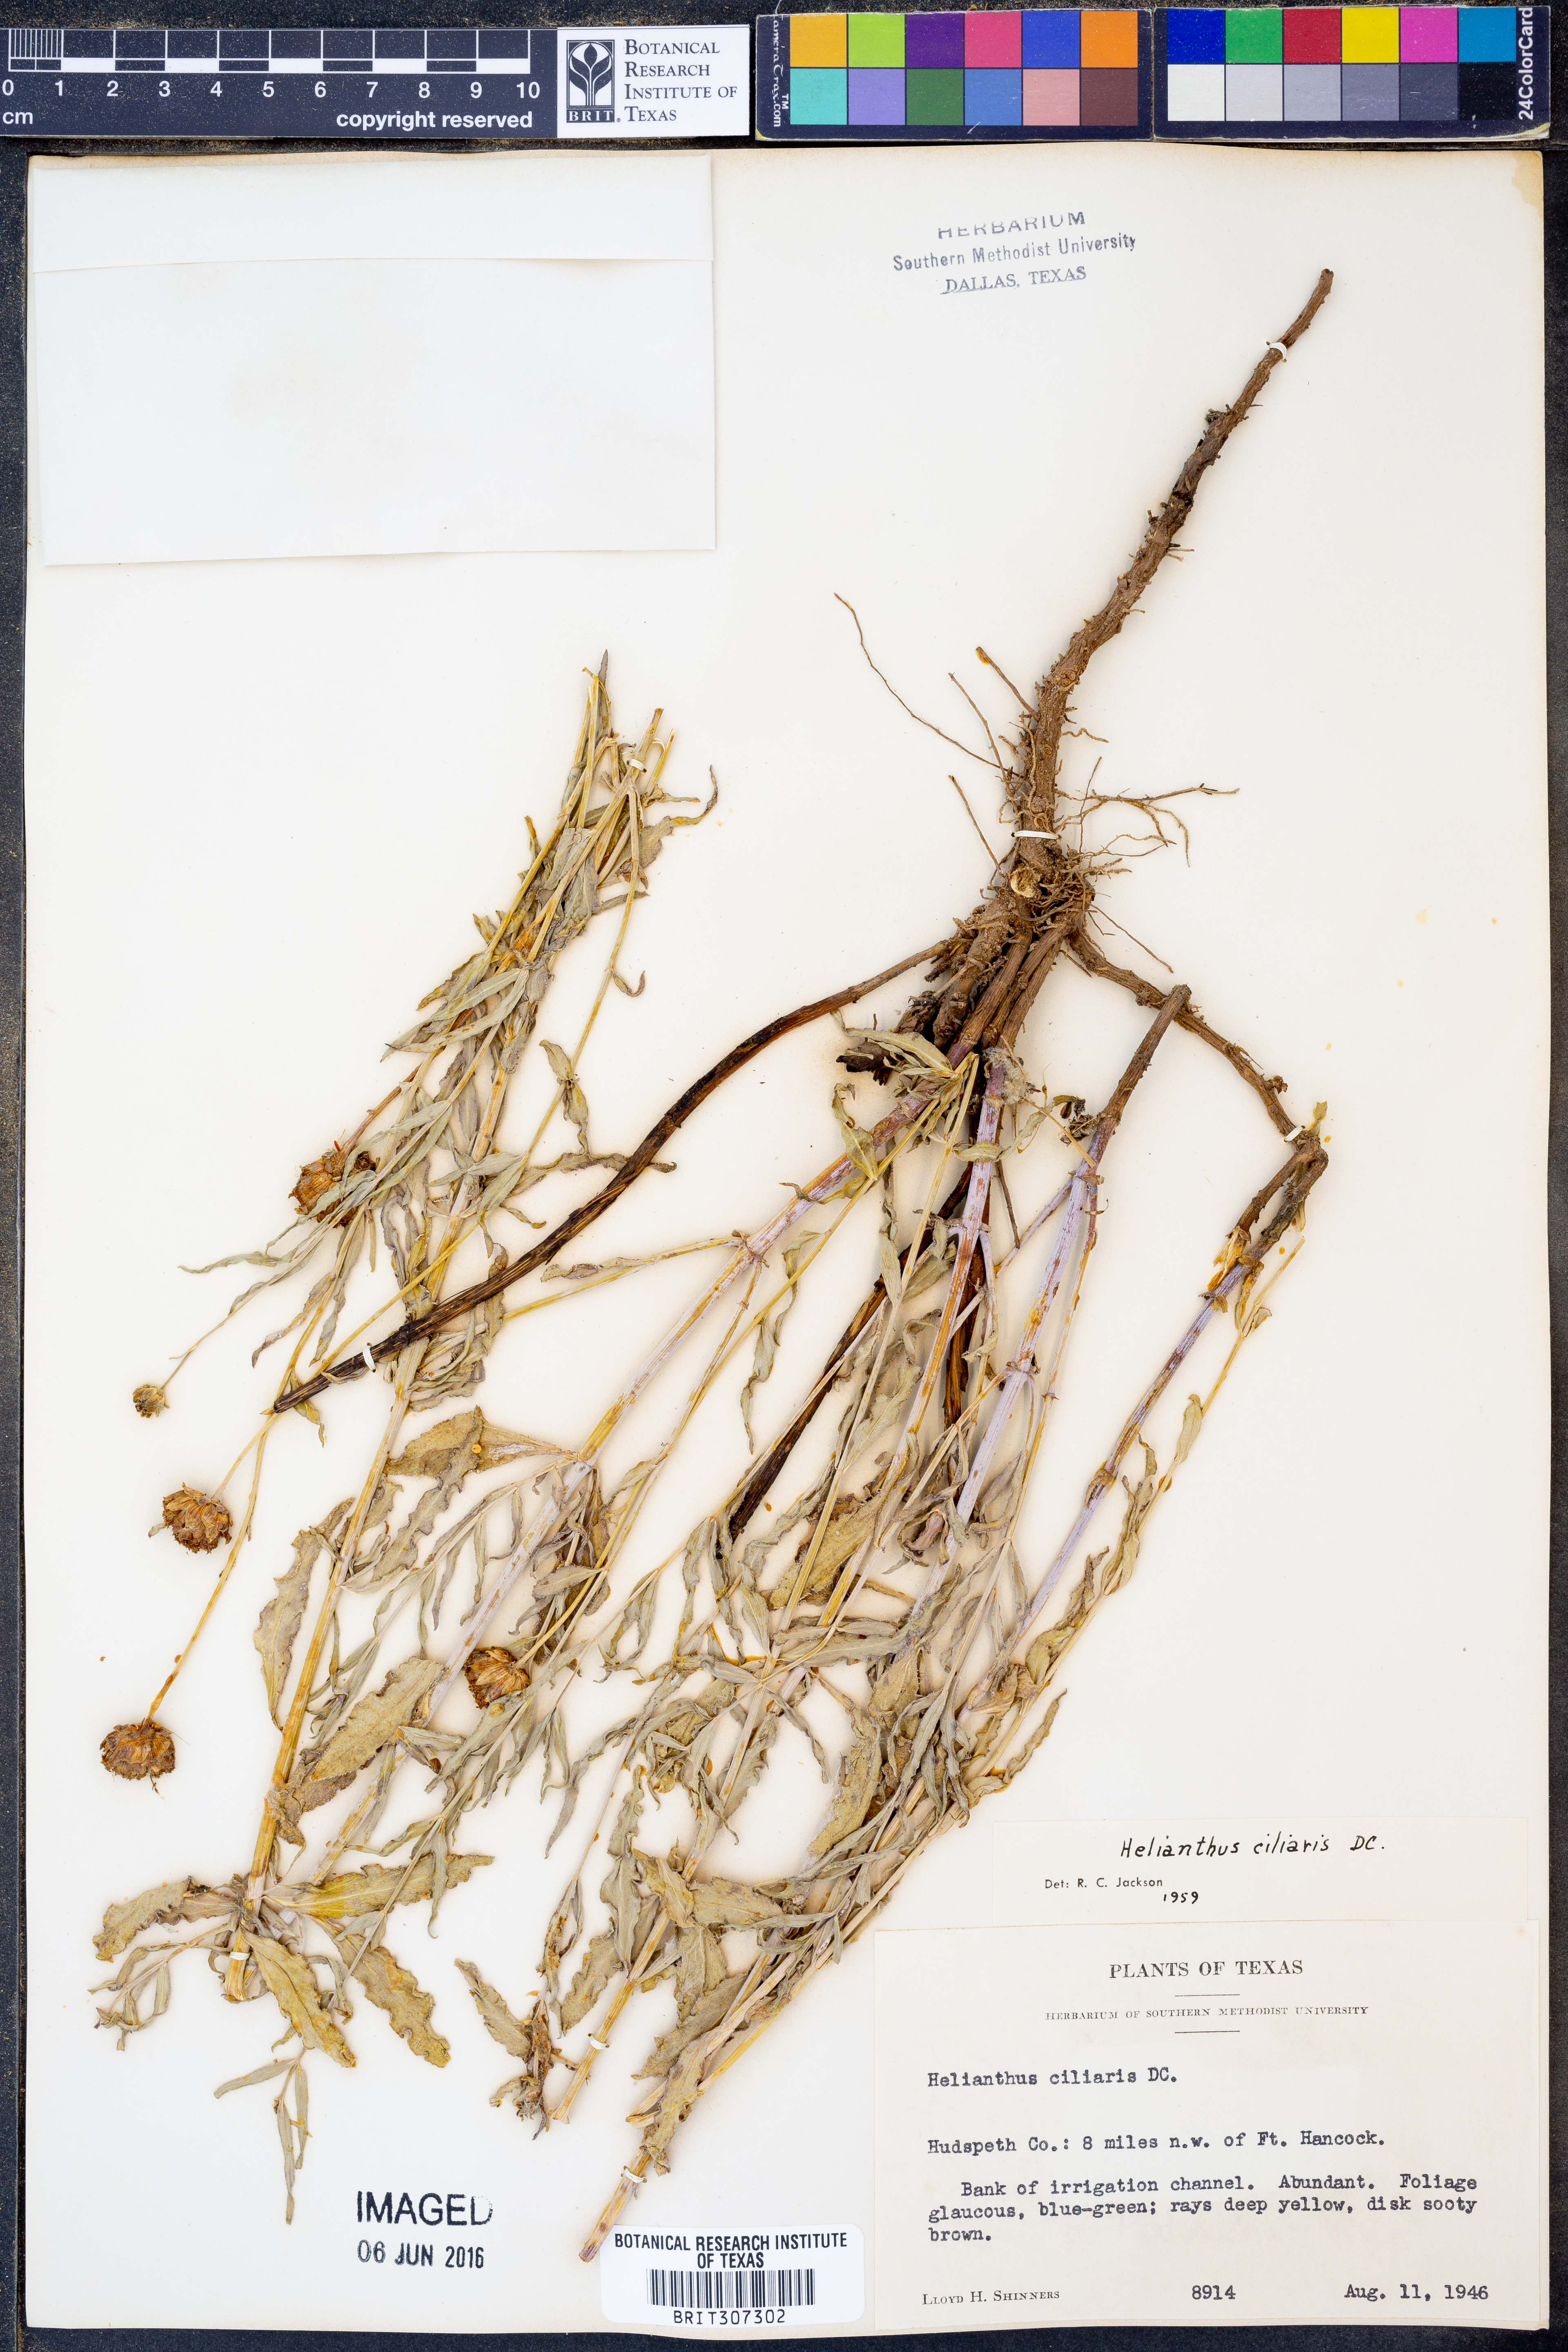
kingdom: Plantae
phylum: Tracheophyta
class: Magnoliopsida
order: Asterales
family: Asteraceae
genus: Helianthus
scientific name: Helianthus ciliaris
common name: Texas blueweed
